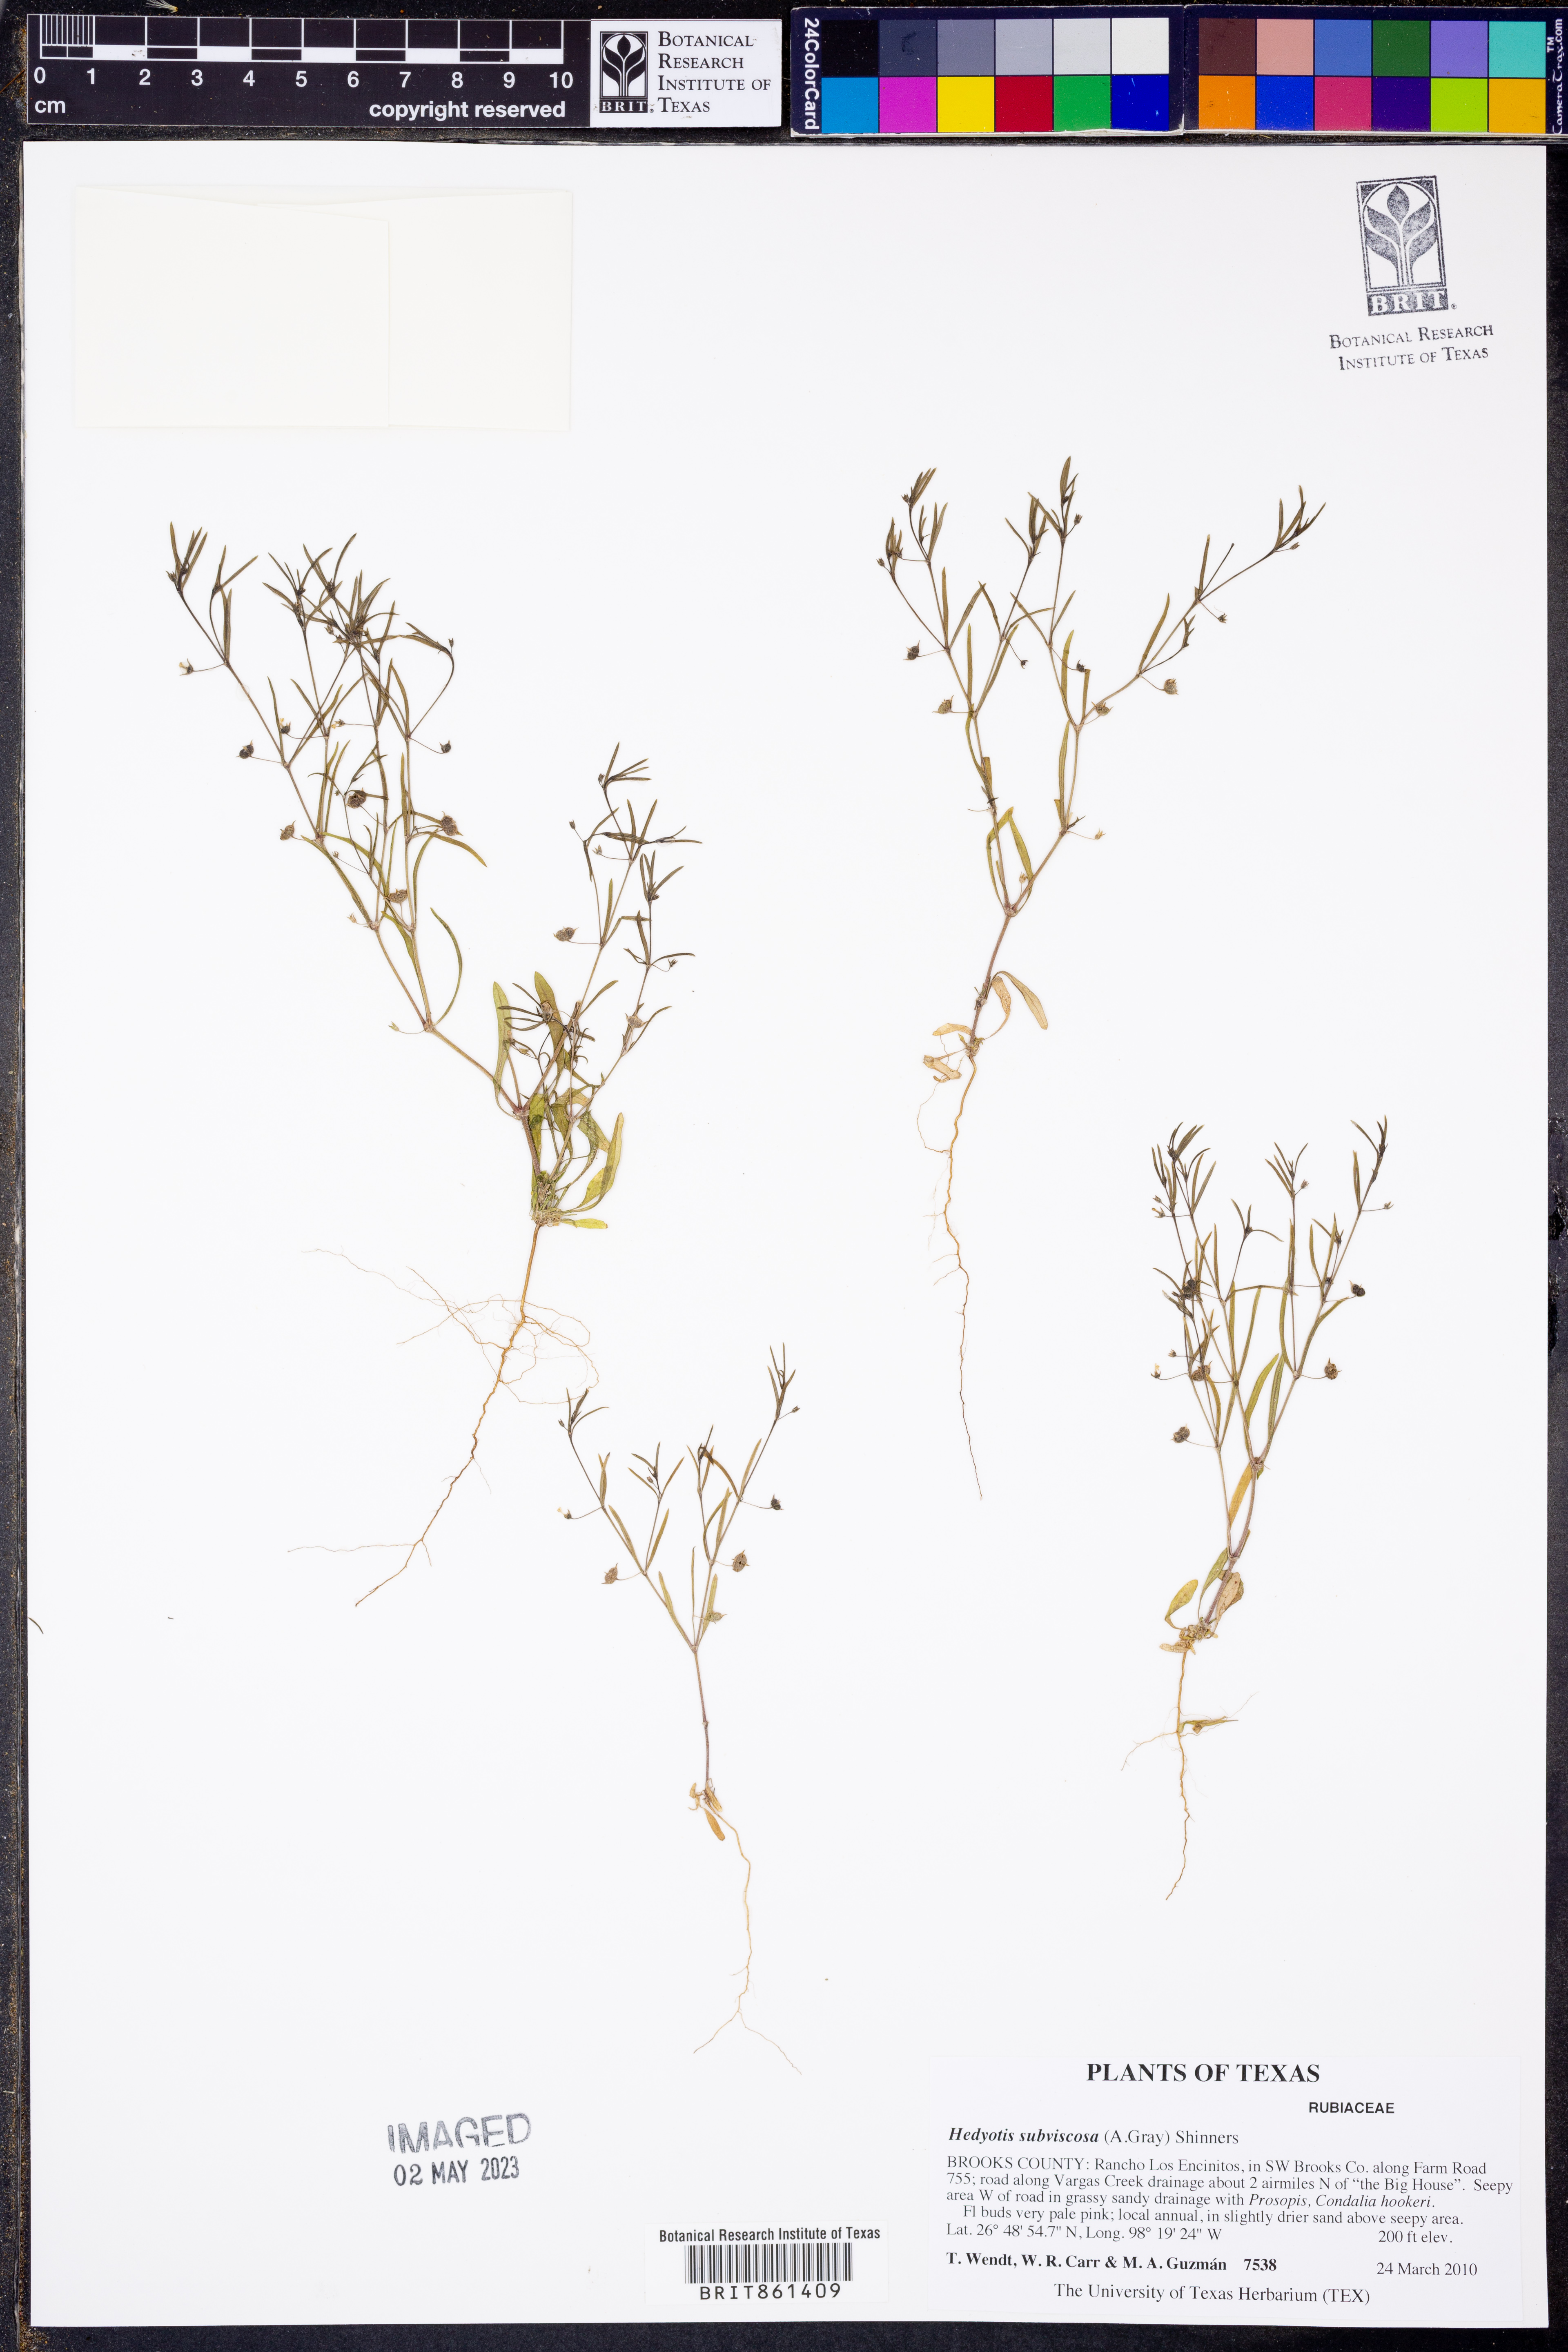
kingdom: Plantae
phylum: Tracheophyta
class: Magnoliopsida
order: Gentianales
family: Rubiaceae
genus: Hedyotis
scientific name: Hedyotis subvenosa
